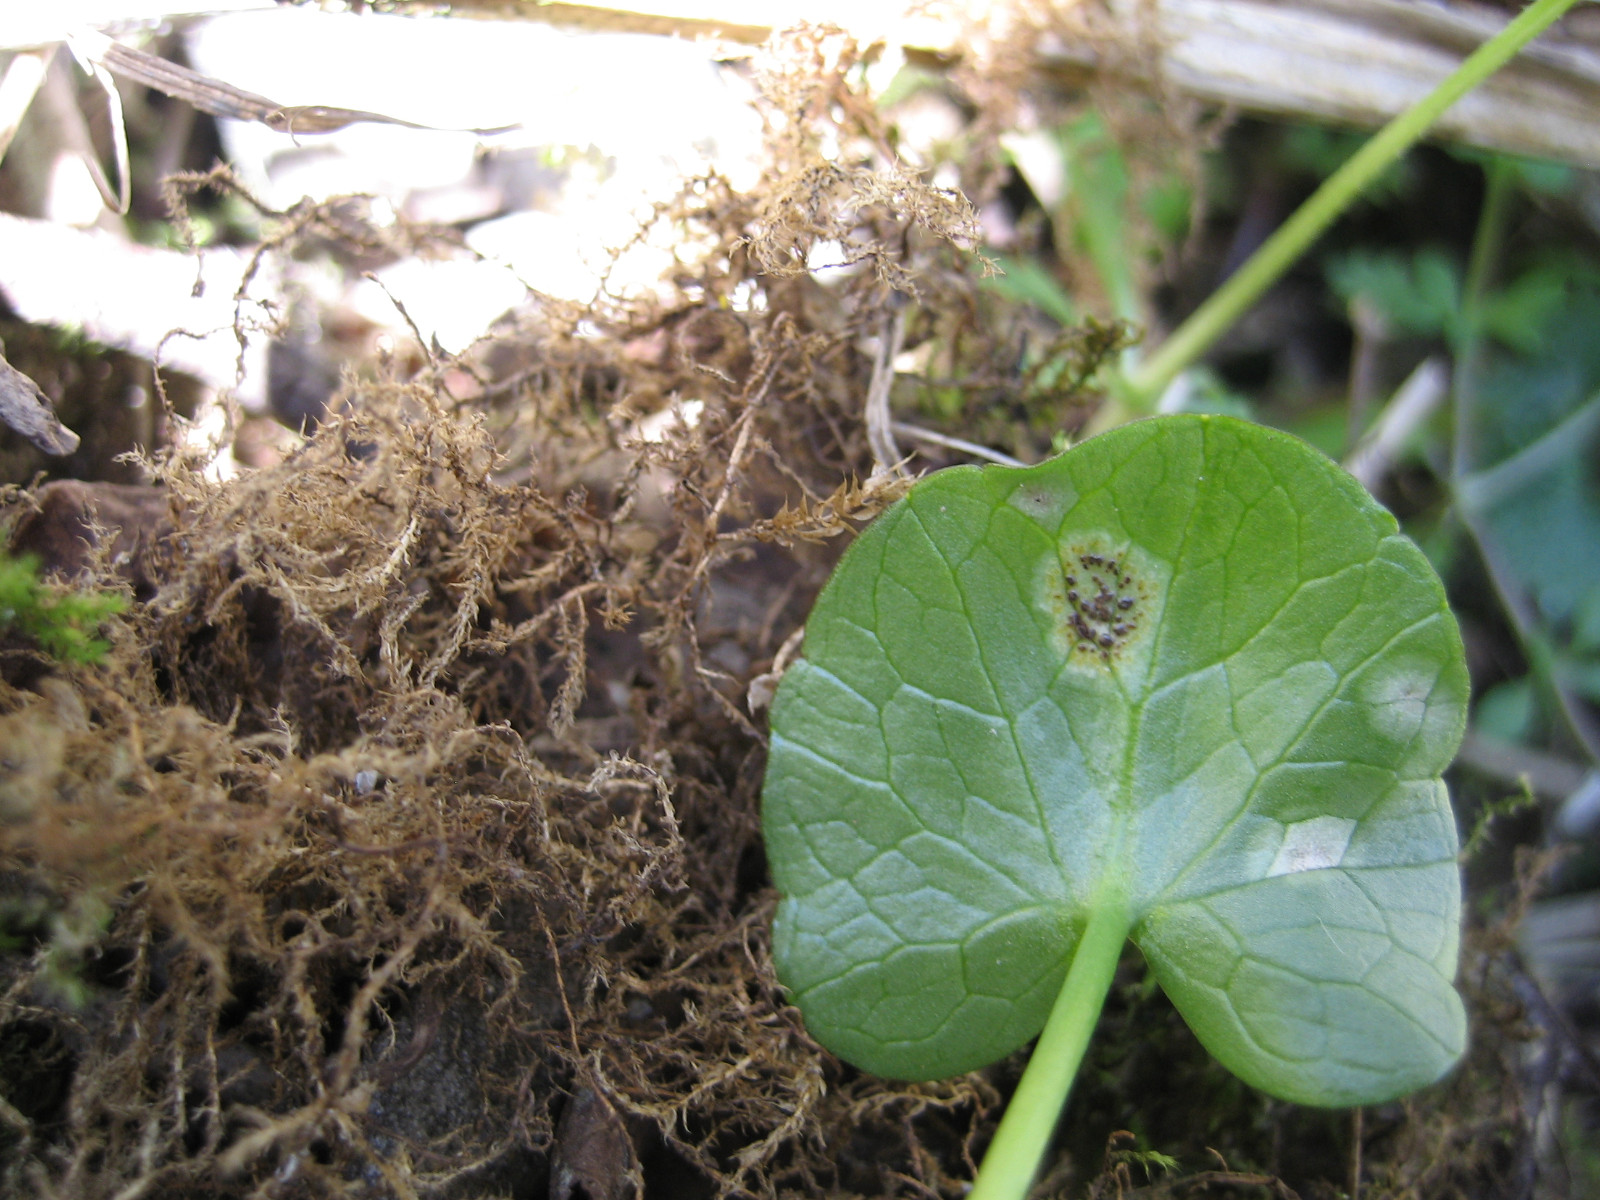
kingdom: Fungi
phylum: Basidiomycota
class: Pucciniomycetes
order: Pucciniales
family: Pucciniaceae
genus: Uromyces
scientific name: Uromyces ficariae
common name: vorterod-encellerust
